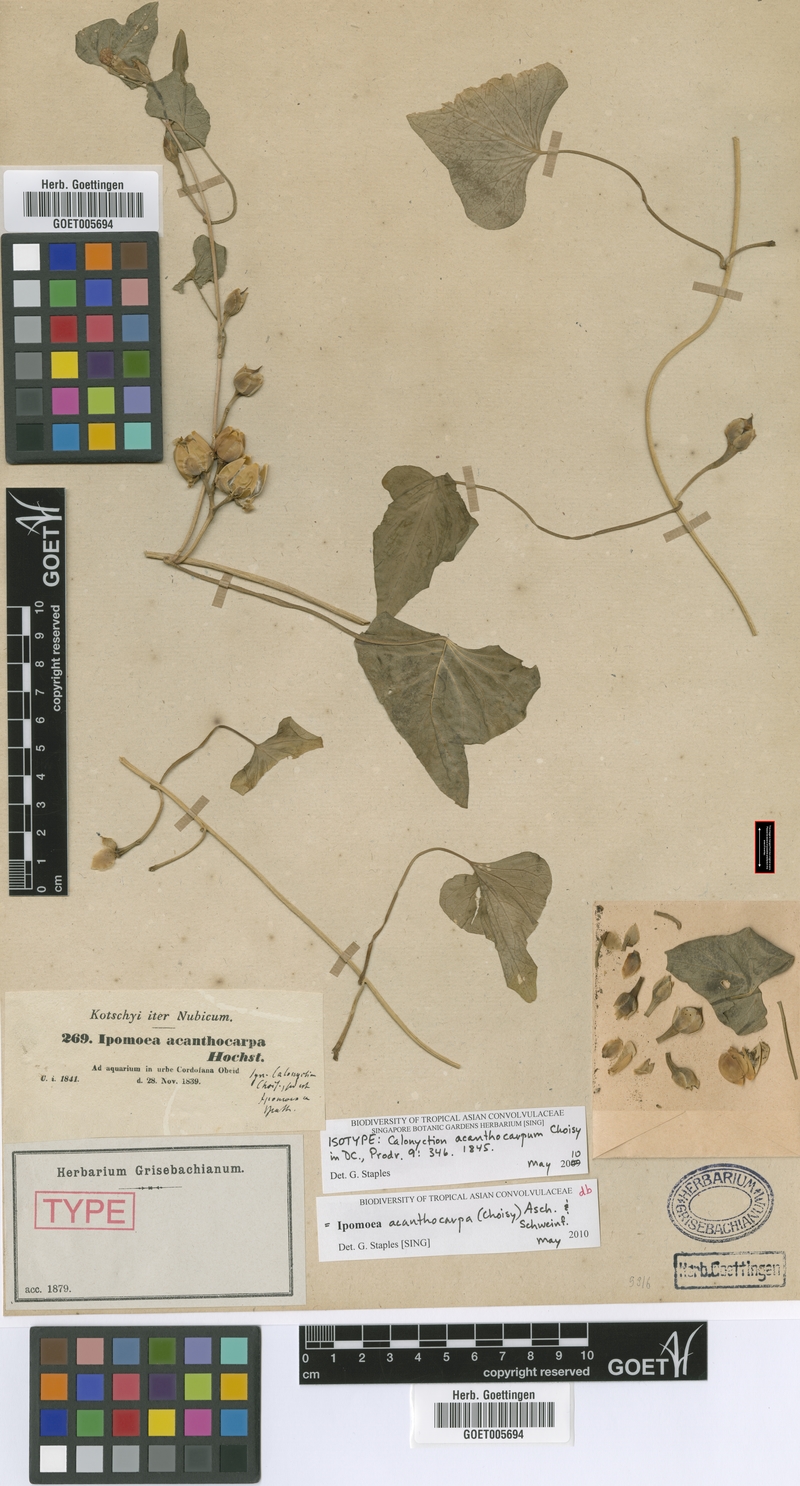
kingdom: Plantae
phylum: Tracheophyta
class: Magnoliopsida
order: Solanales
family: Convolvulaceae
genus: Ipomoea
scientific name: Ipomoea acanthocarpa
